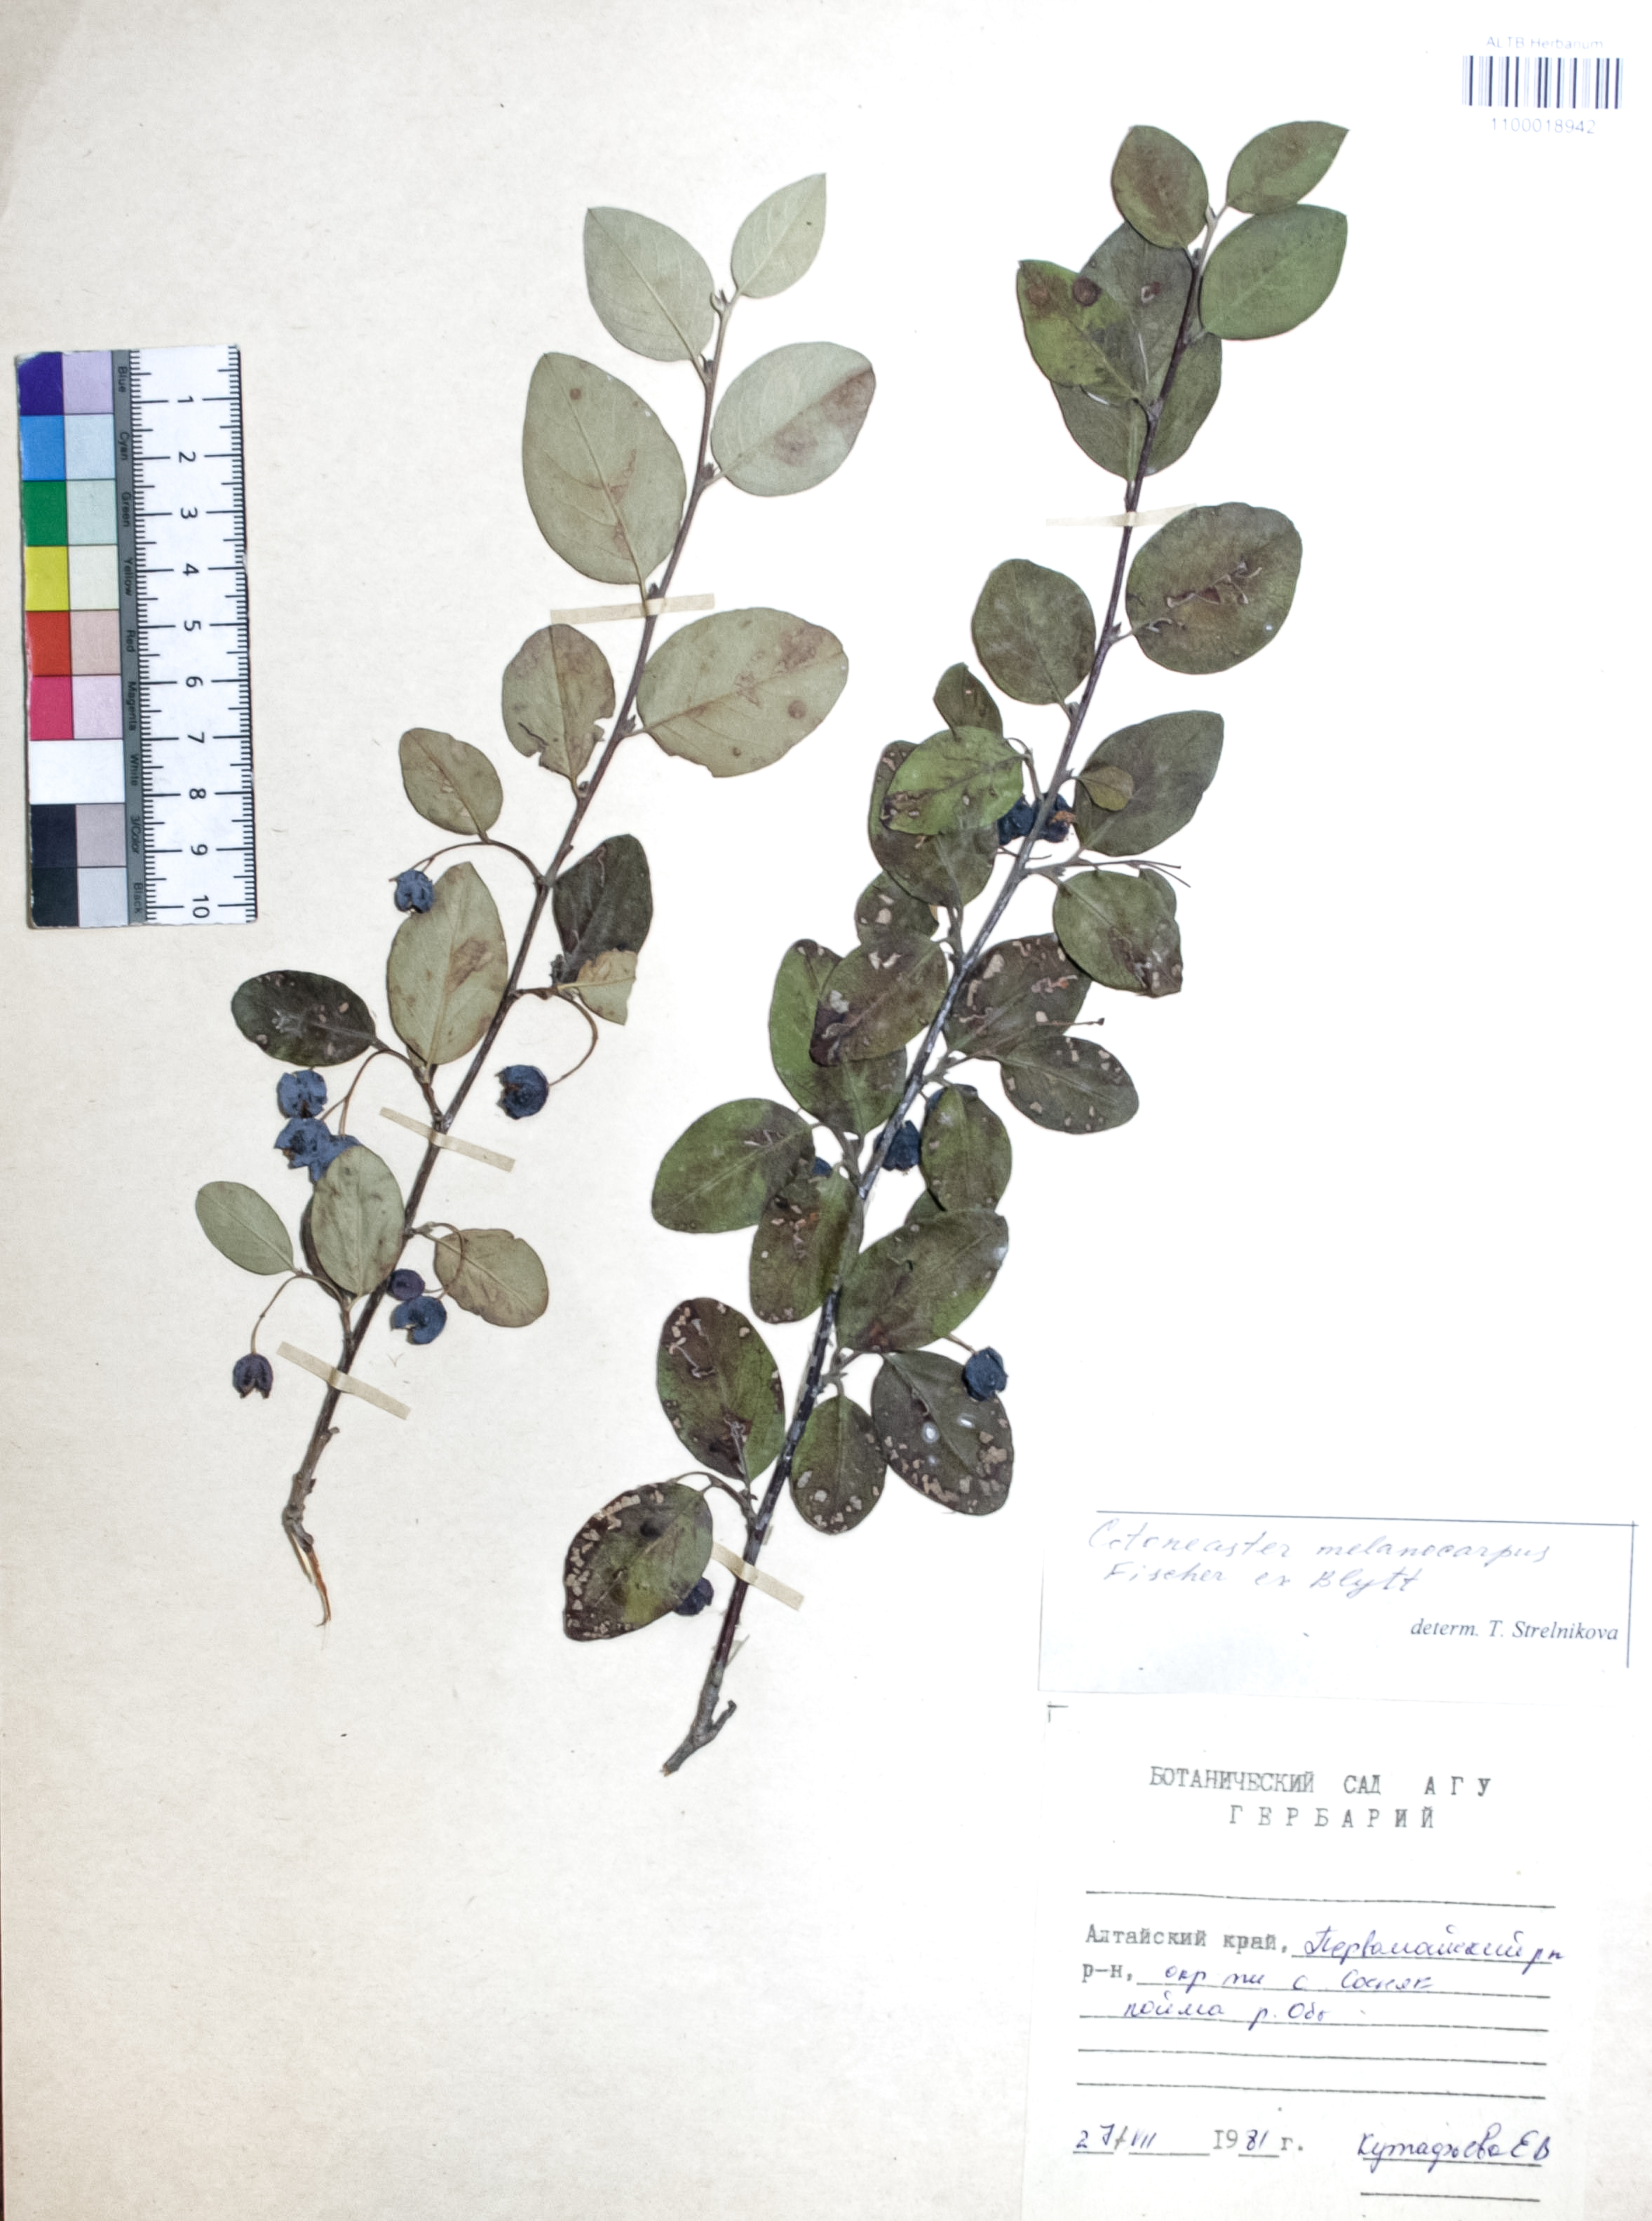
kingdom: Plantae
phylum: Tracheophyta
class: Magnoliopsida
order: Rosales
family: Rosaceae
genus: Cotoneaster
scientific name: Cotoneaster niger
